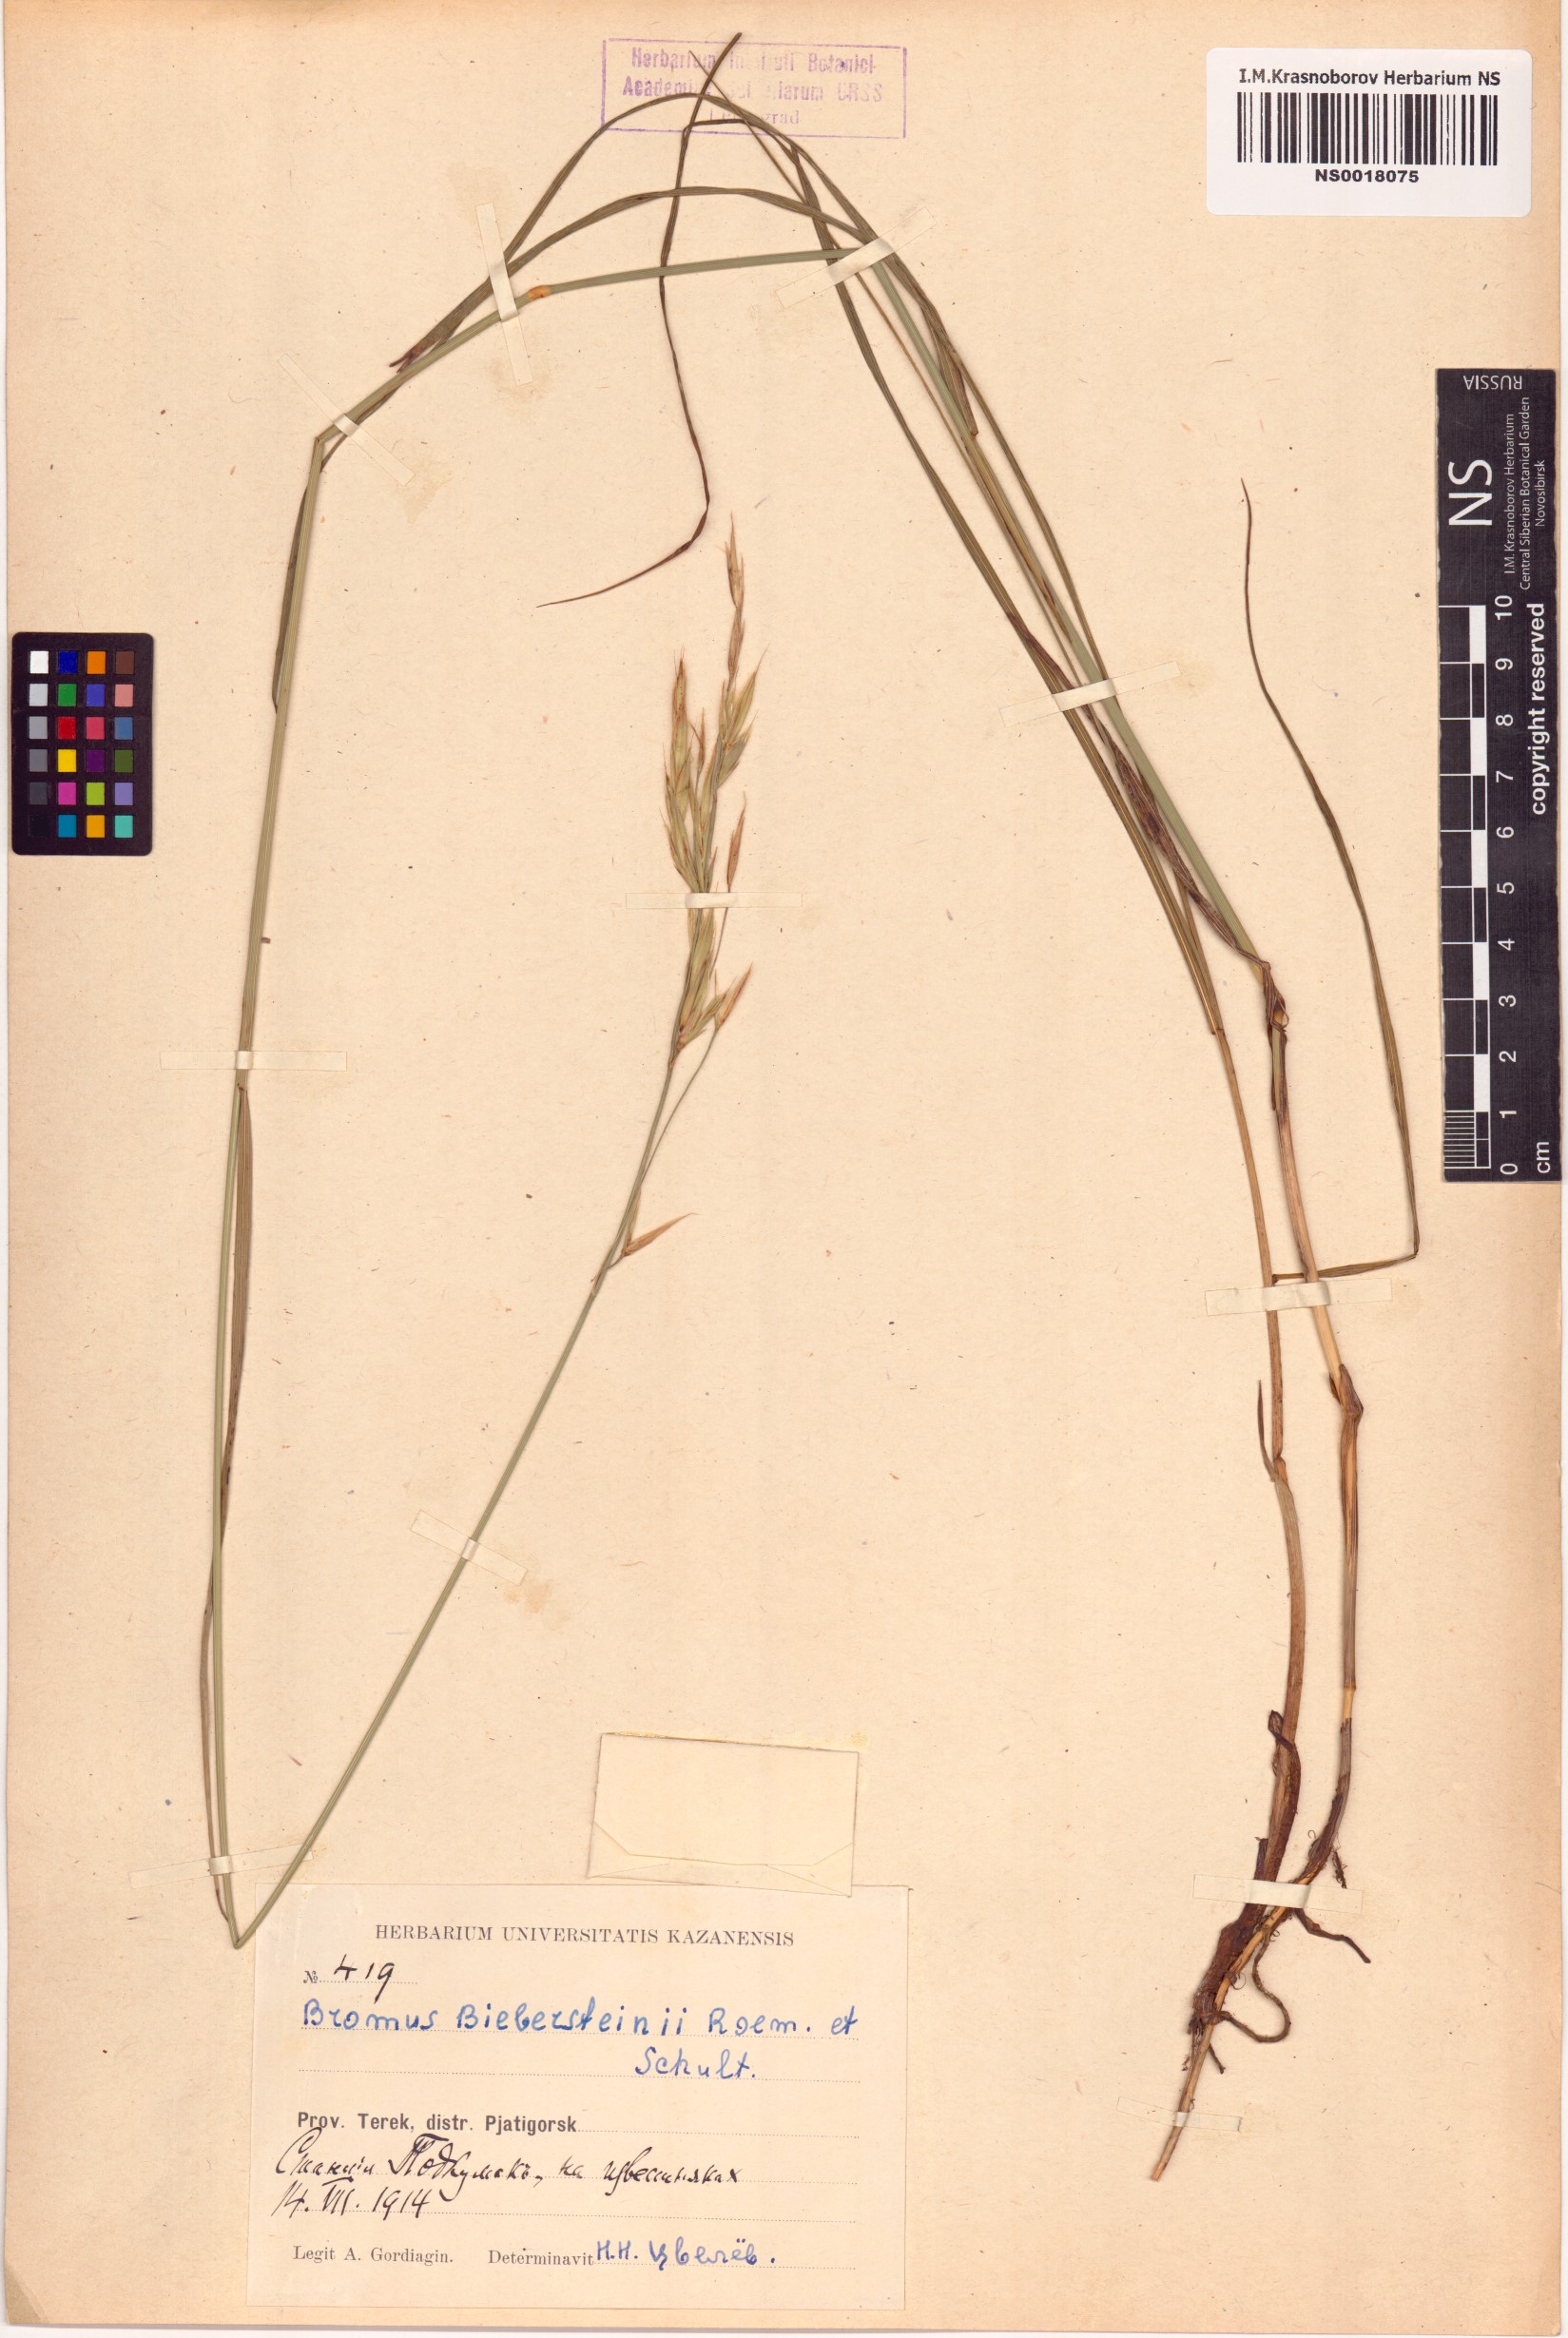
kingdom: Plantae
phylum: Tracheophyta
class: Liliopsida
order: Poales
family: Poaceae
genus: Bromus
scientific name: Bromus biebersteinii
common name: Bieberstein brome
